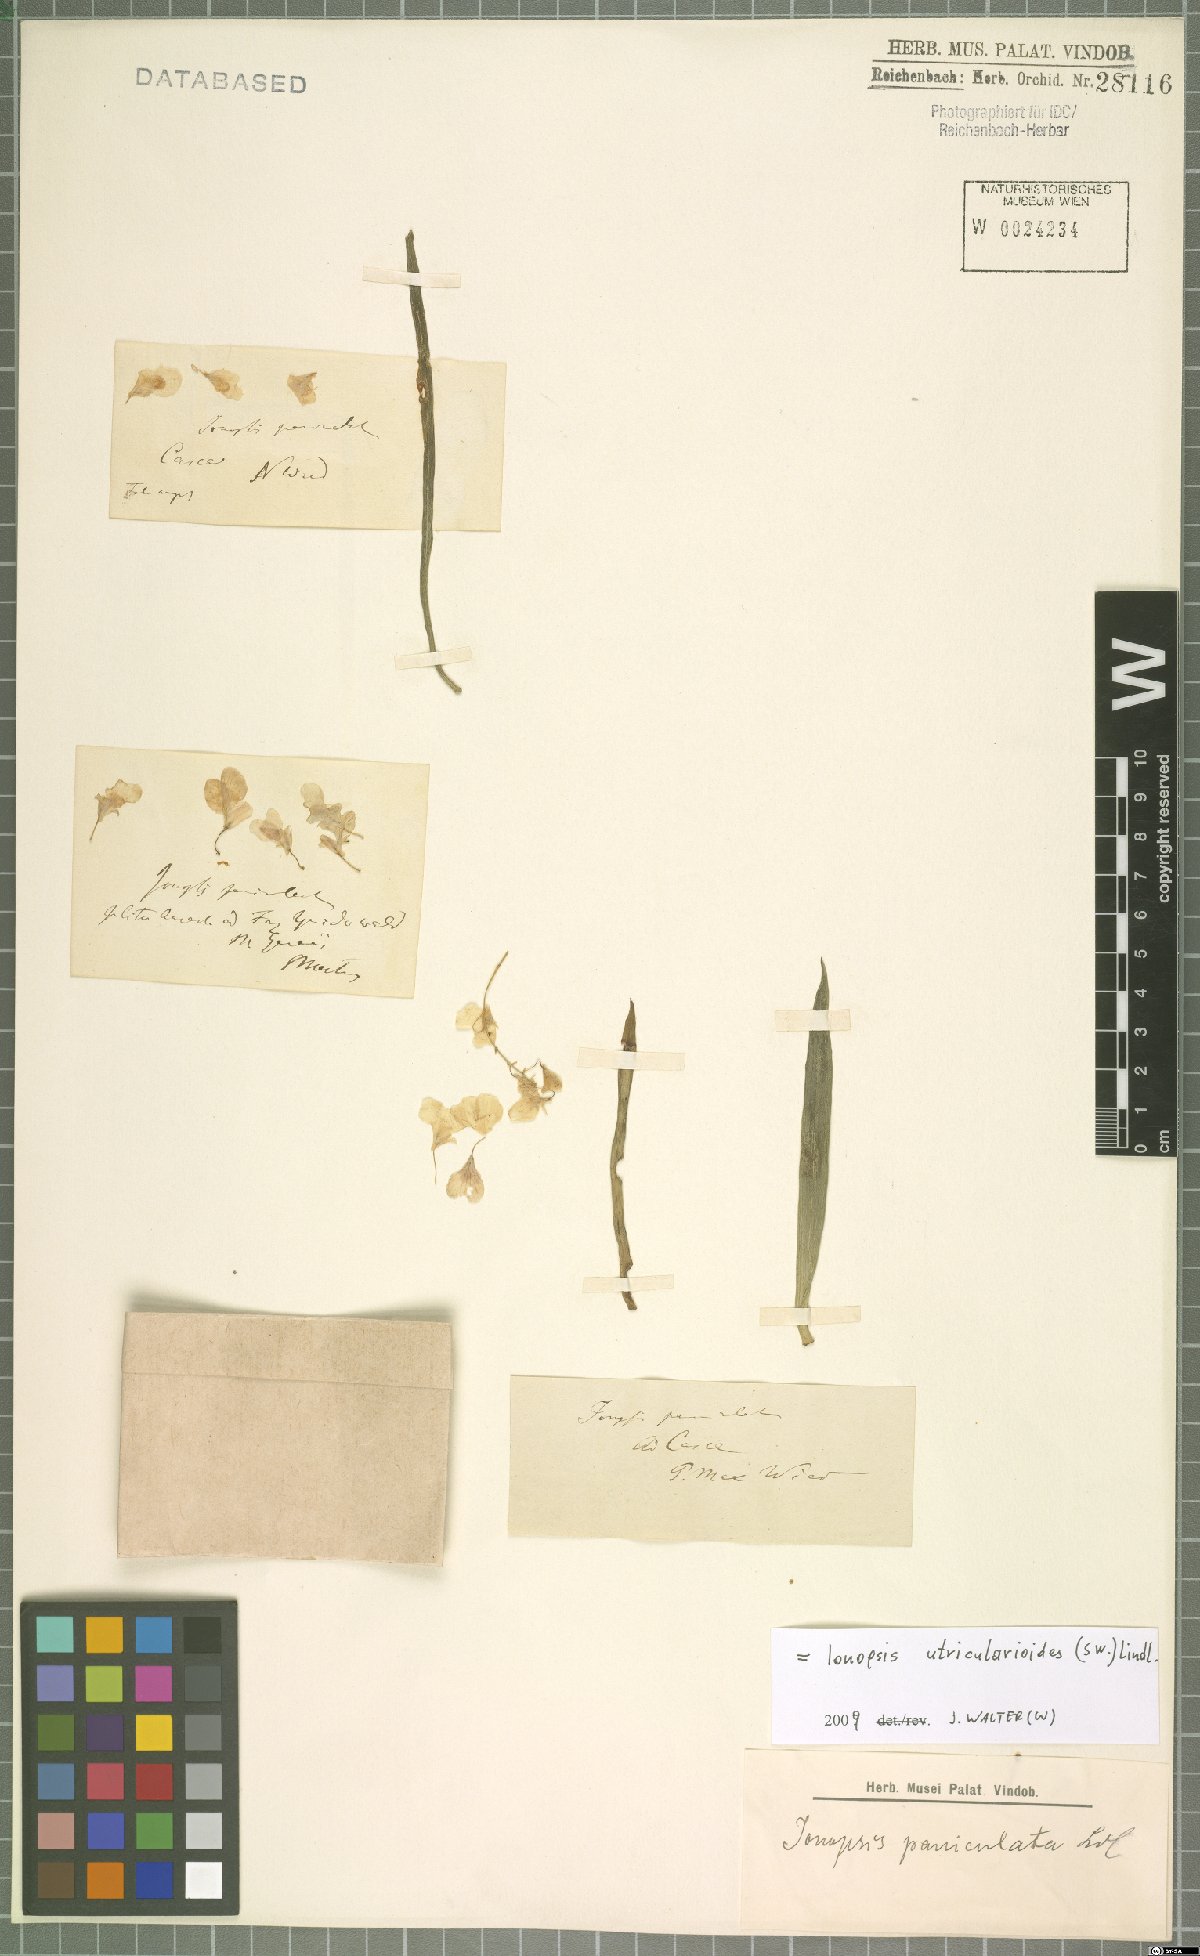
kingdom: Plantae
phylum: Tracheophyta
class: Liliopsida
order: Asparagales
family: Orchidaceae
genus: Ionopsis
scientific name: Ionopsis utricularioides
